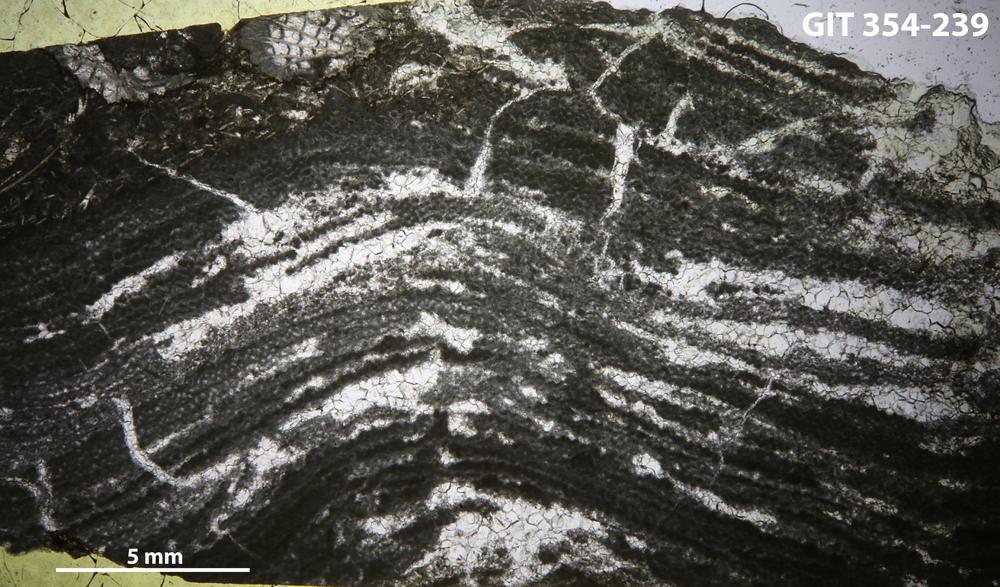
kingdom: Animalia
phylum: Porifera
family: Ecclimadictyidae
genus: Ecclimadictyon
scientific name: Ecclimadictyon Clathrodictyon microvesiculosum
